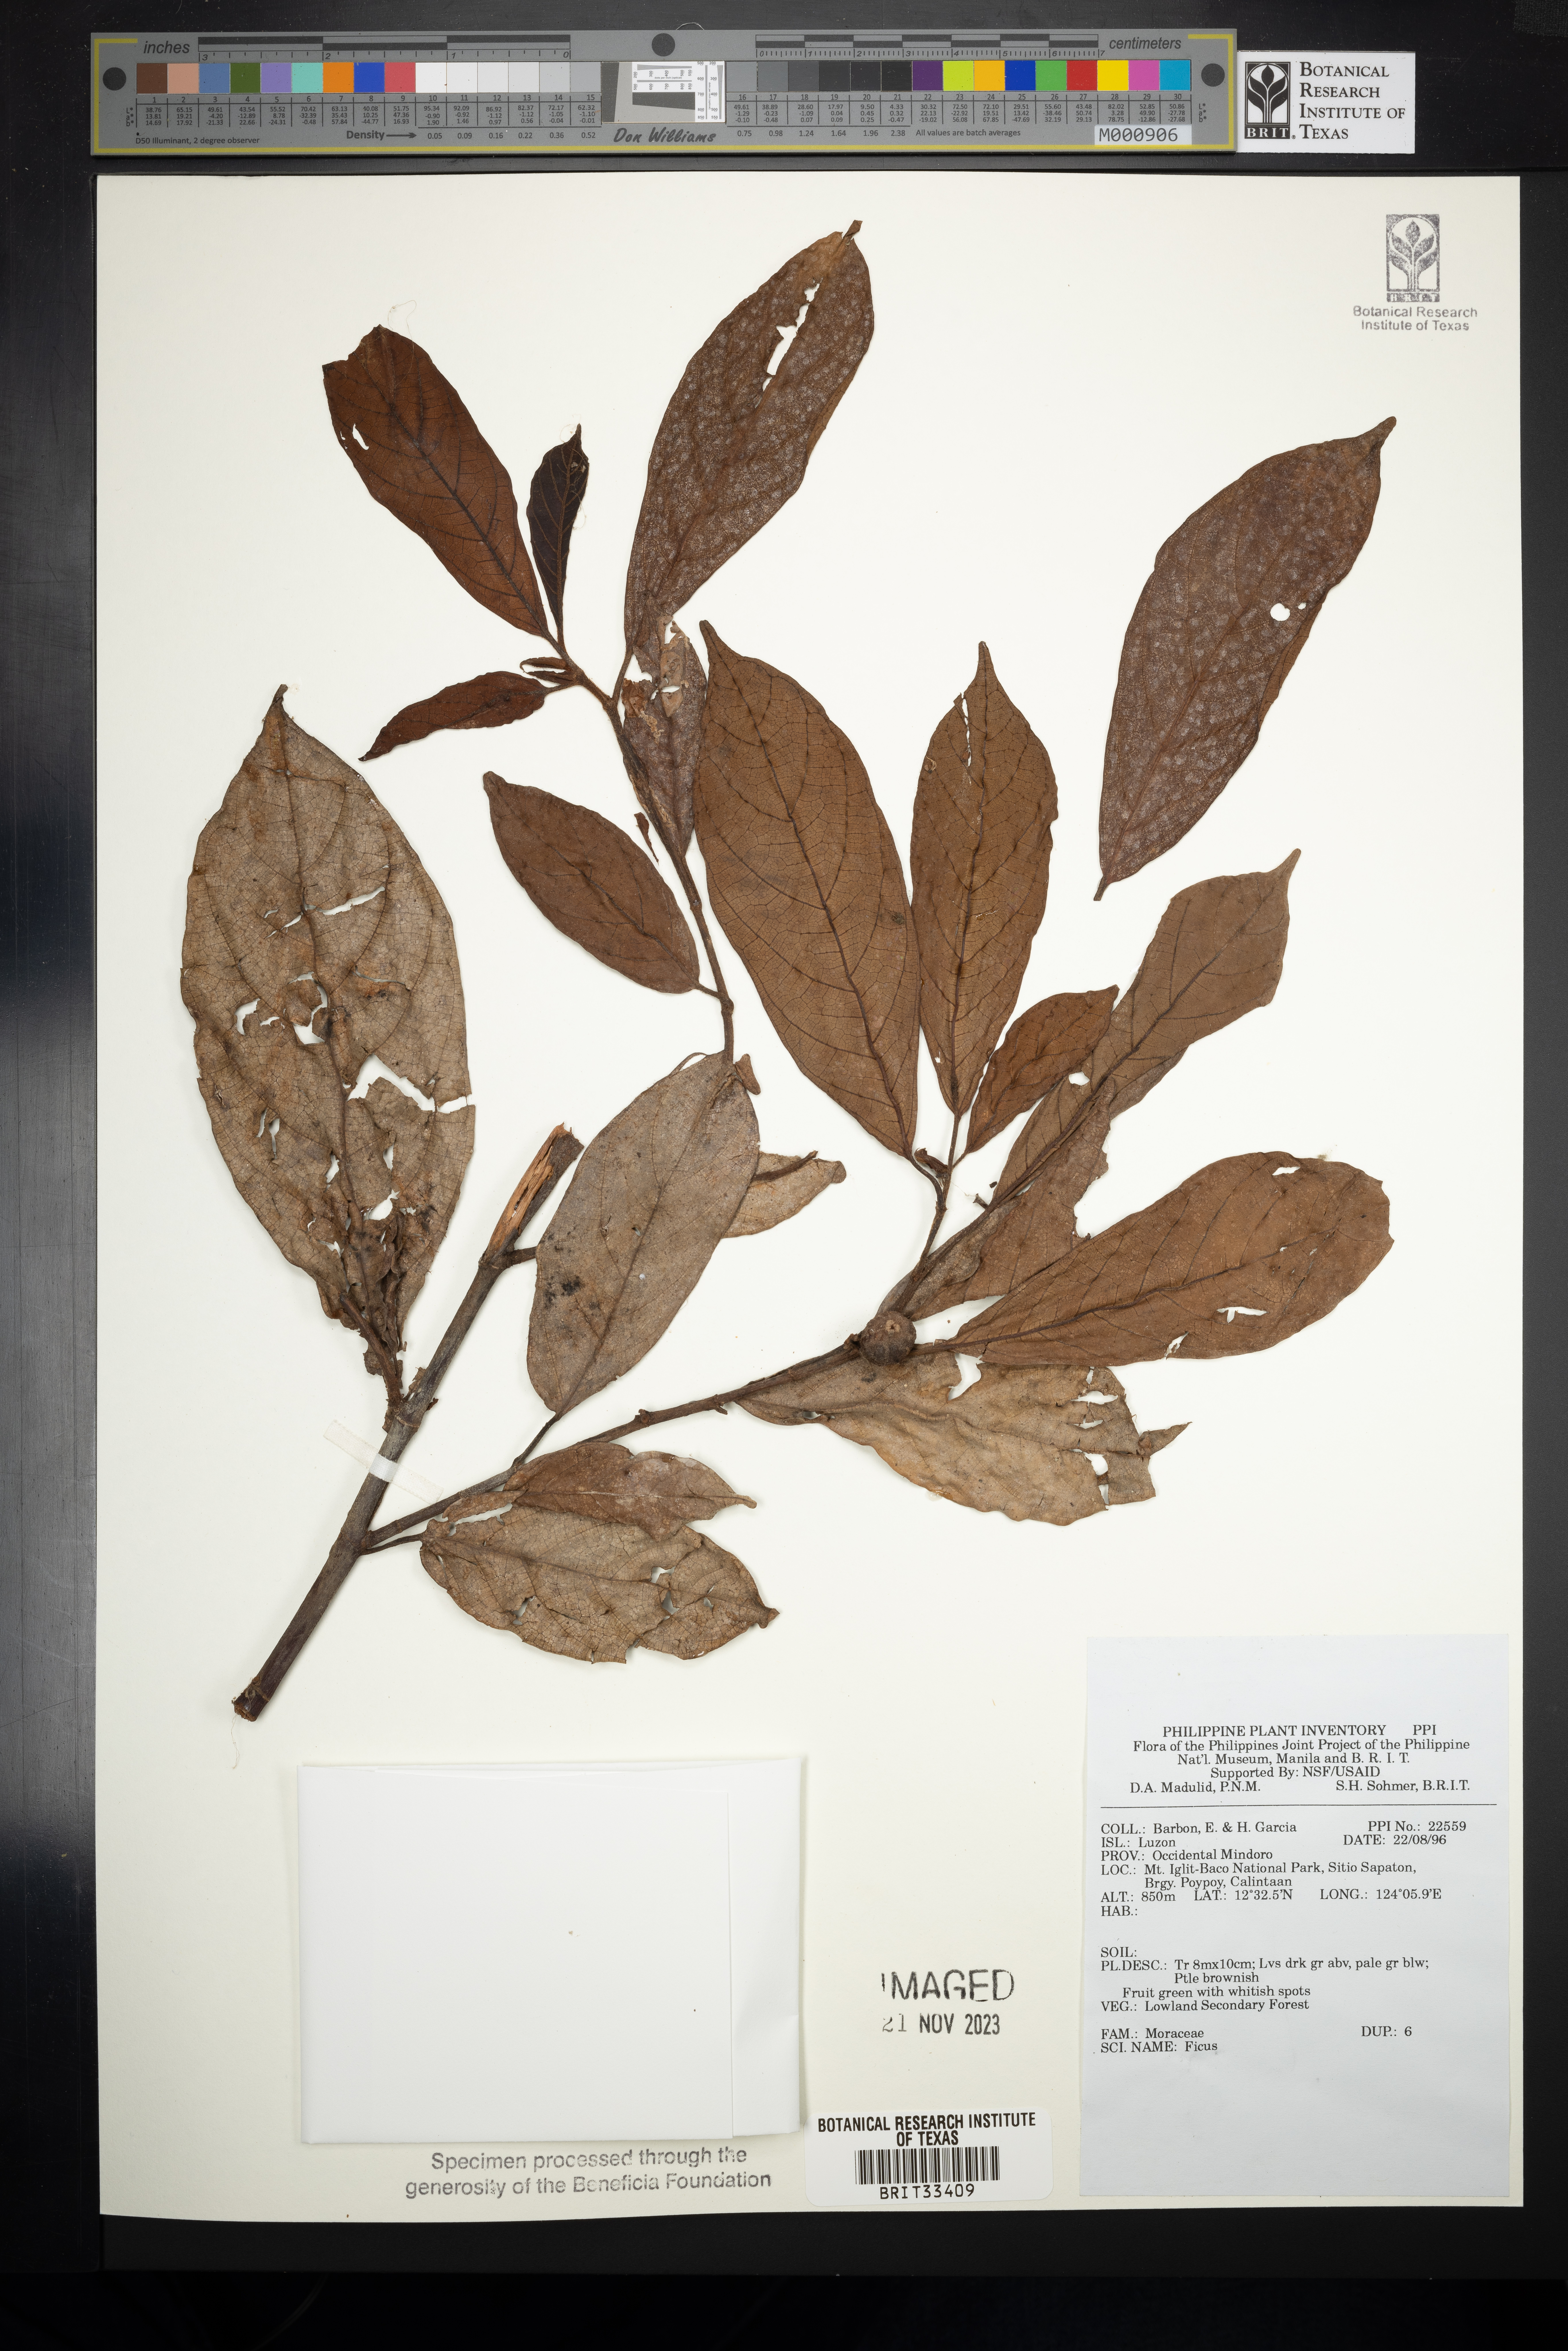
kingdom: Plantae
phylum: Tracheophyta
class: Magnoliopsida
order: Rosales
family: Moraceae
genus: Ficus
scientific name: Ficus
